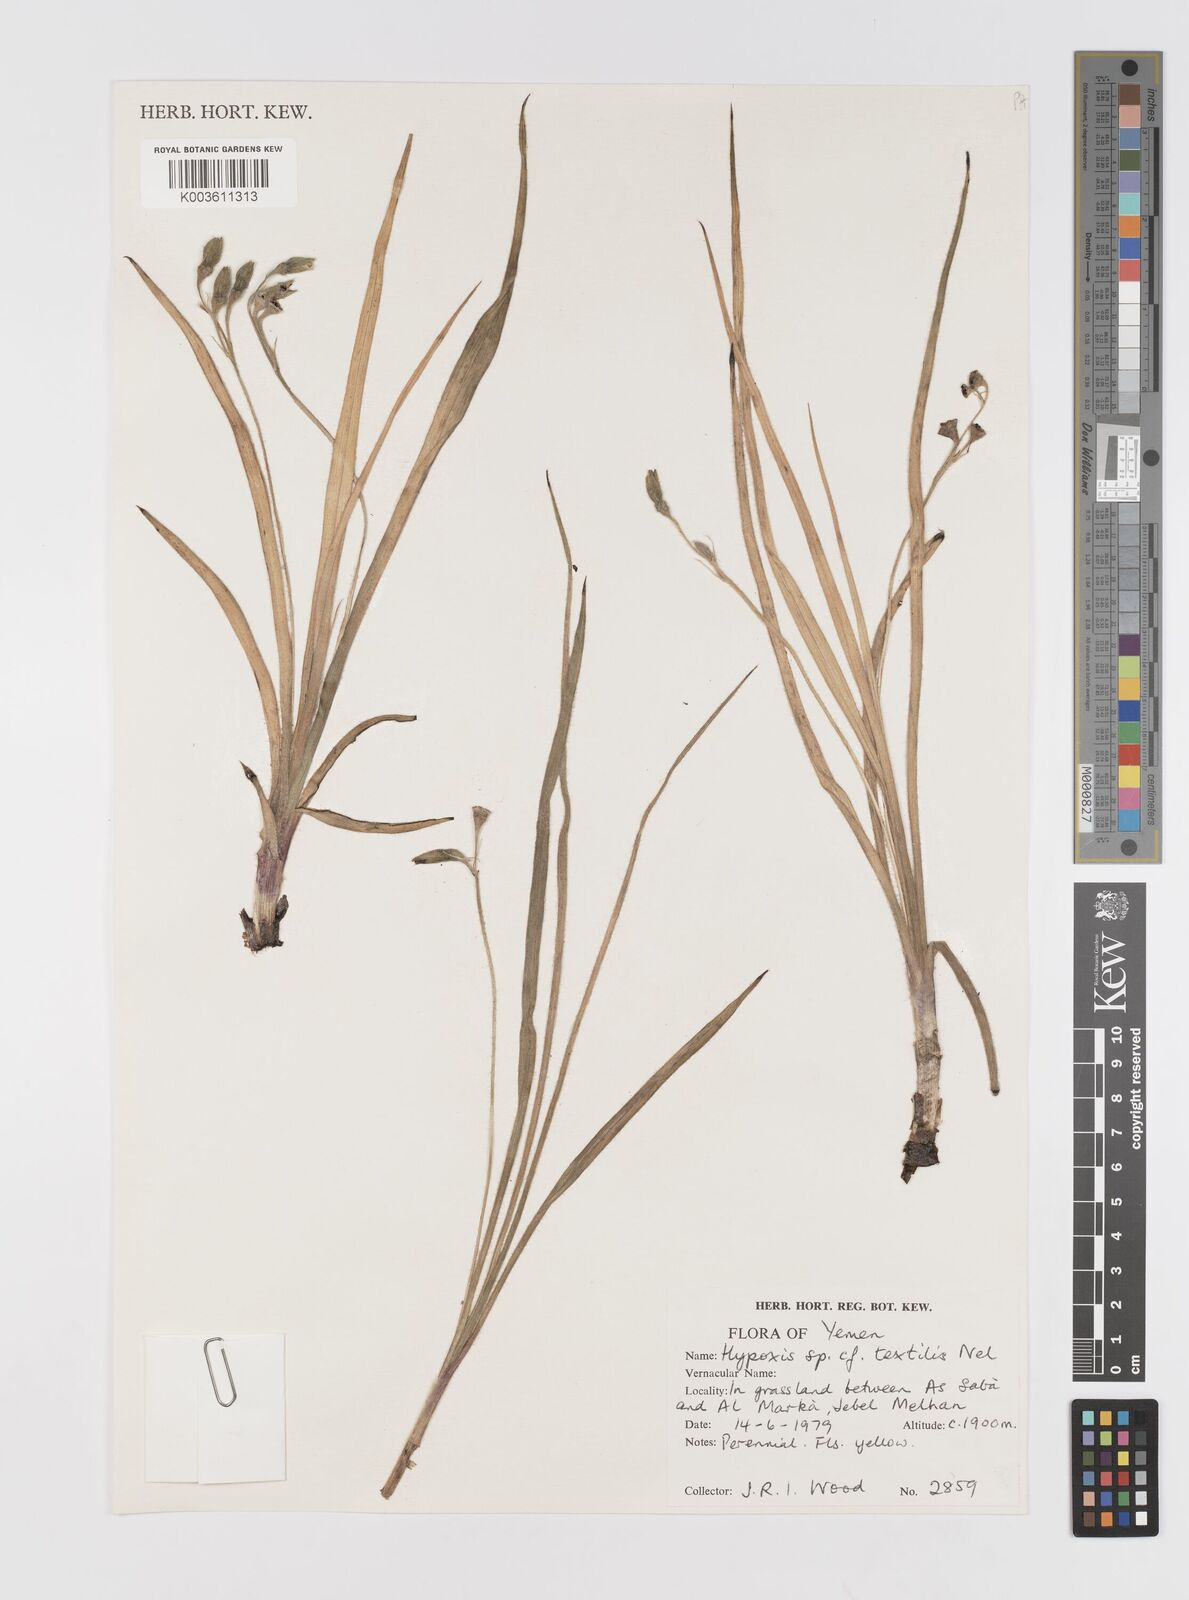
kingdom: Plantae
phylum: Tracheophyta
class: Liliopsida
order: Asparagales
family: Hypoxidaceae
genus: Hypoxis
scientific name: Hypoxis urceolata
